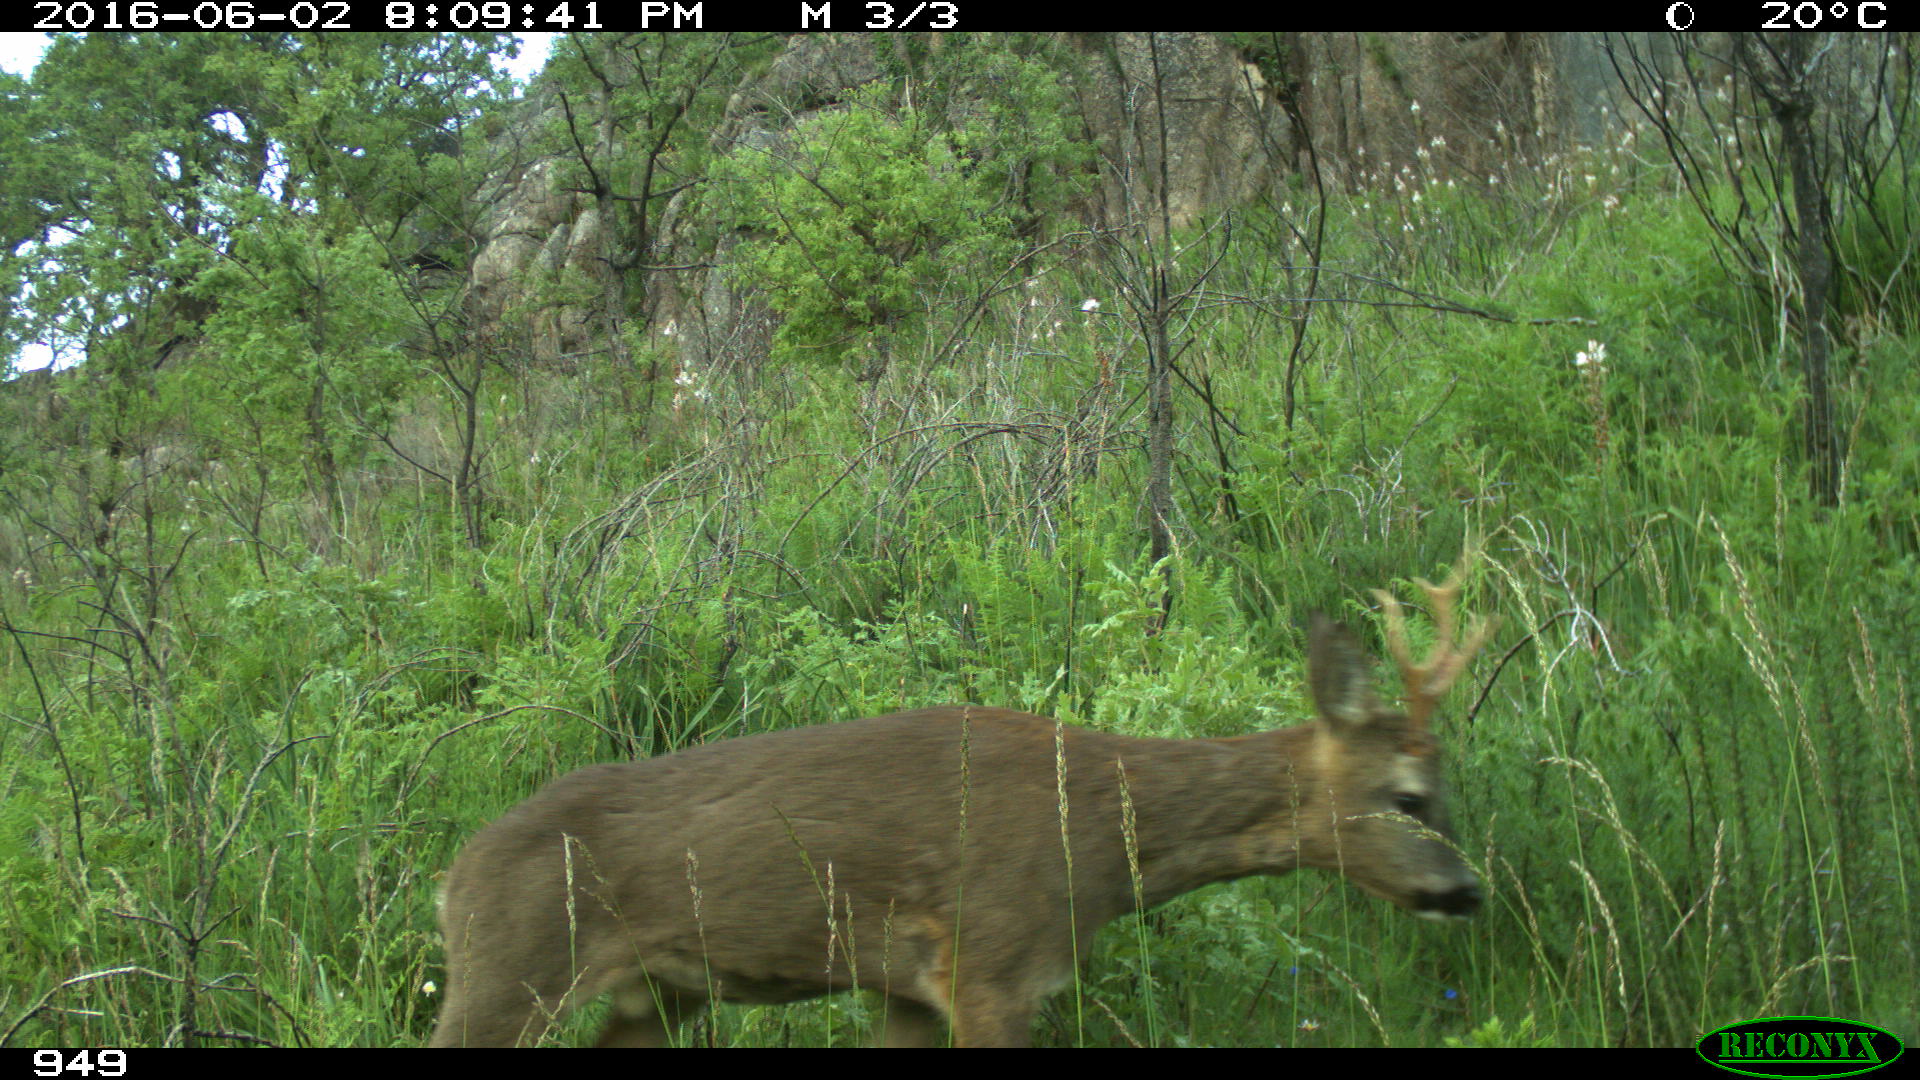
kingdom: Animalia
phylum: Chordata
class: Mammalia
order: Artiodactyla
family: Cervidae
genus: Capreolus
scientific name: Capreolus capreolus
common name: Western roe deer
